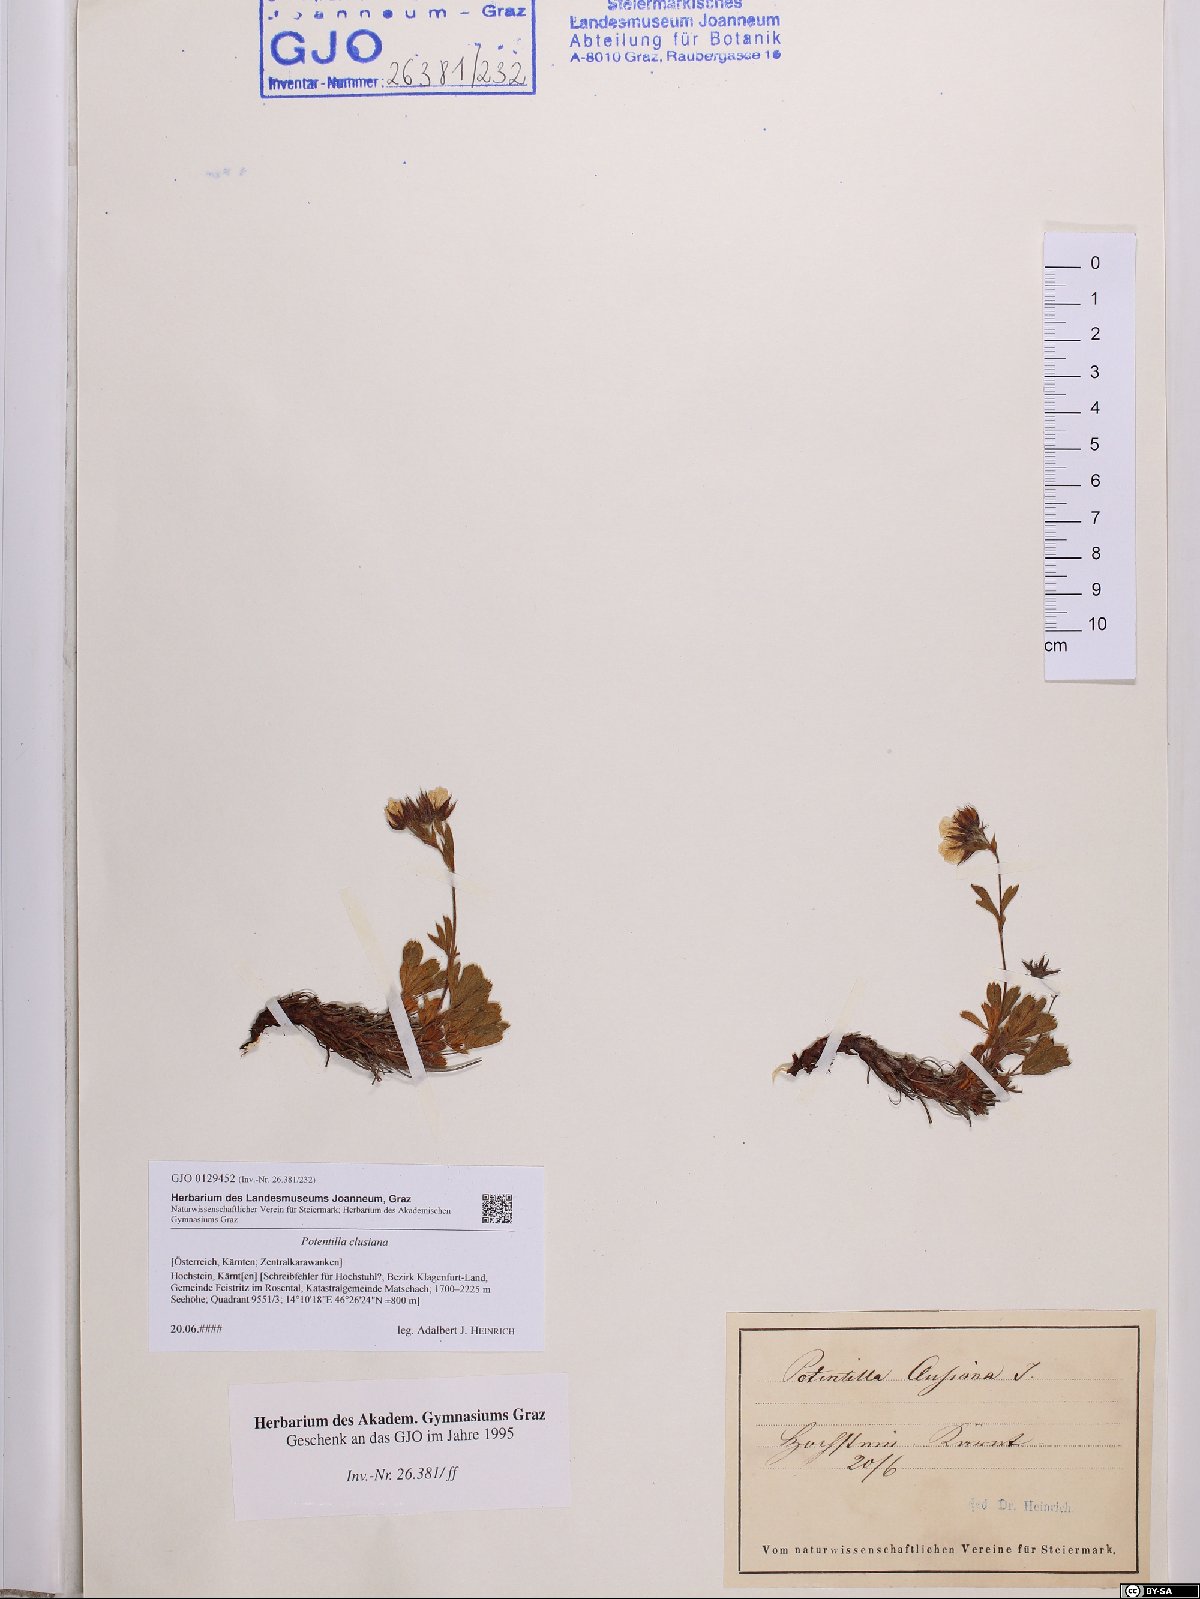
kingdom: Plantae
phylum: Tracheophyta
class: Magnoliopsida
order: Rosales
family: Rosaceae
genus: Potentilla
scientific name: Potentilla clusiana
